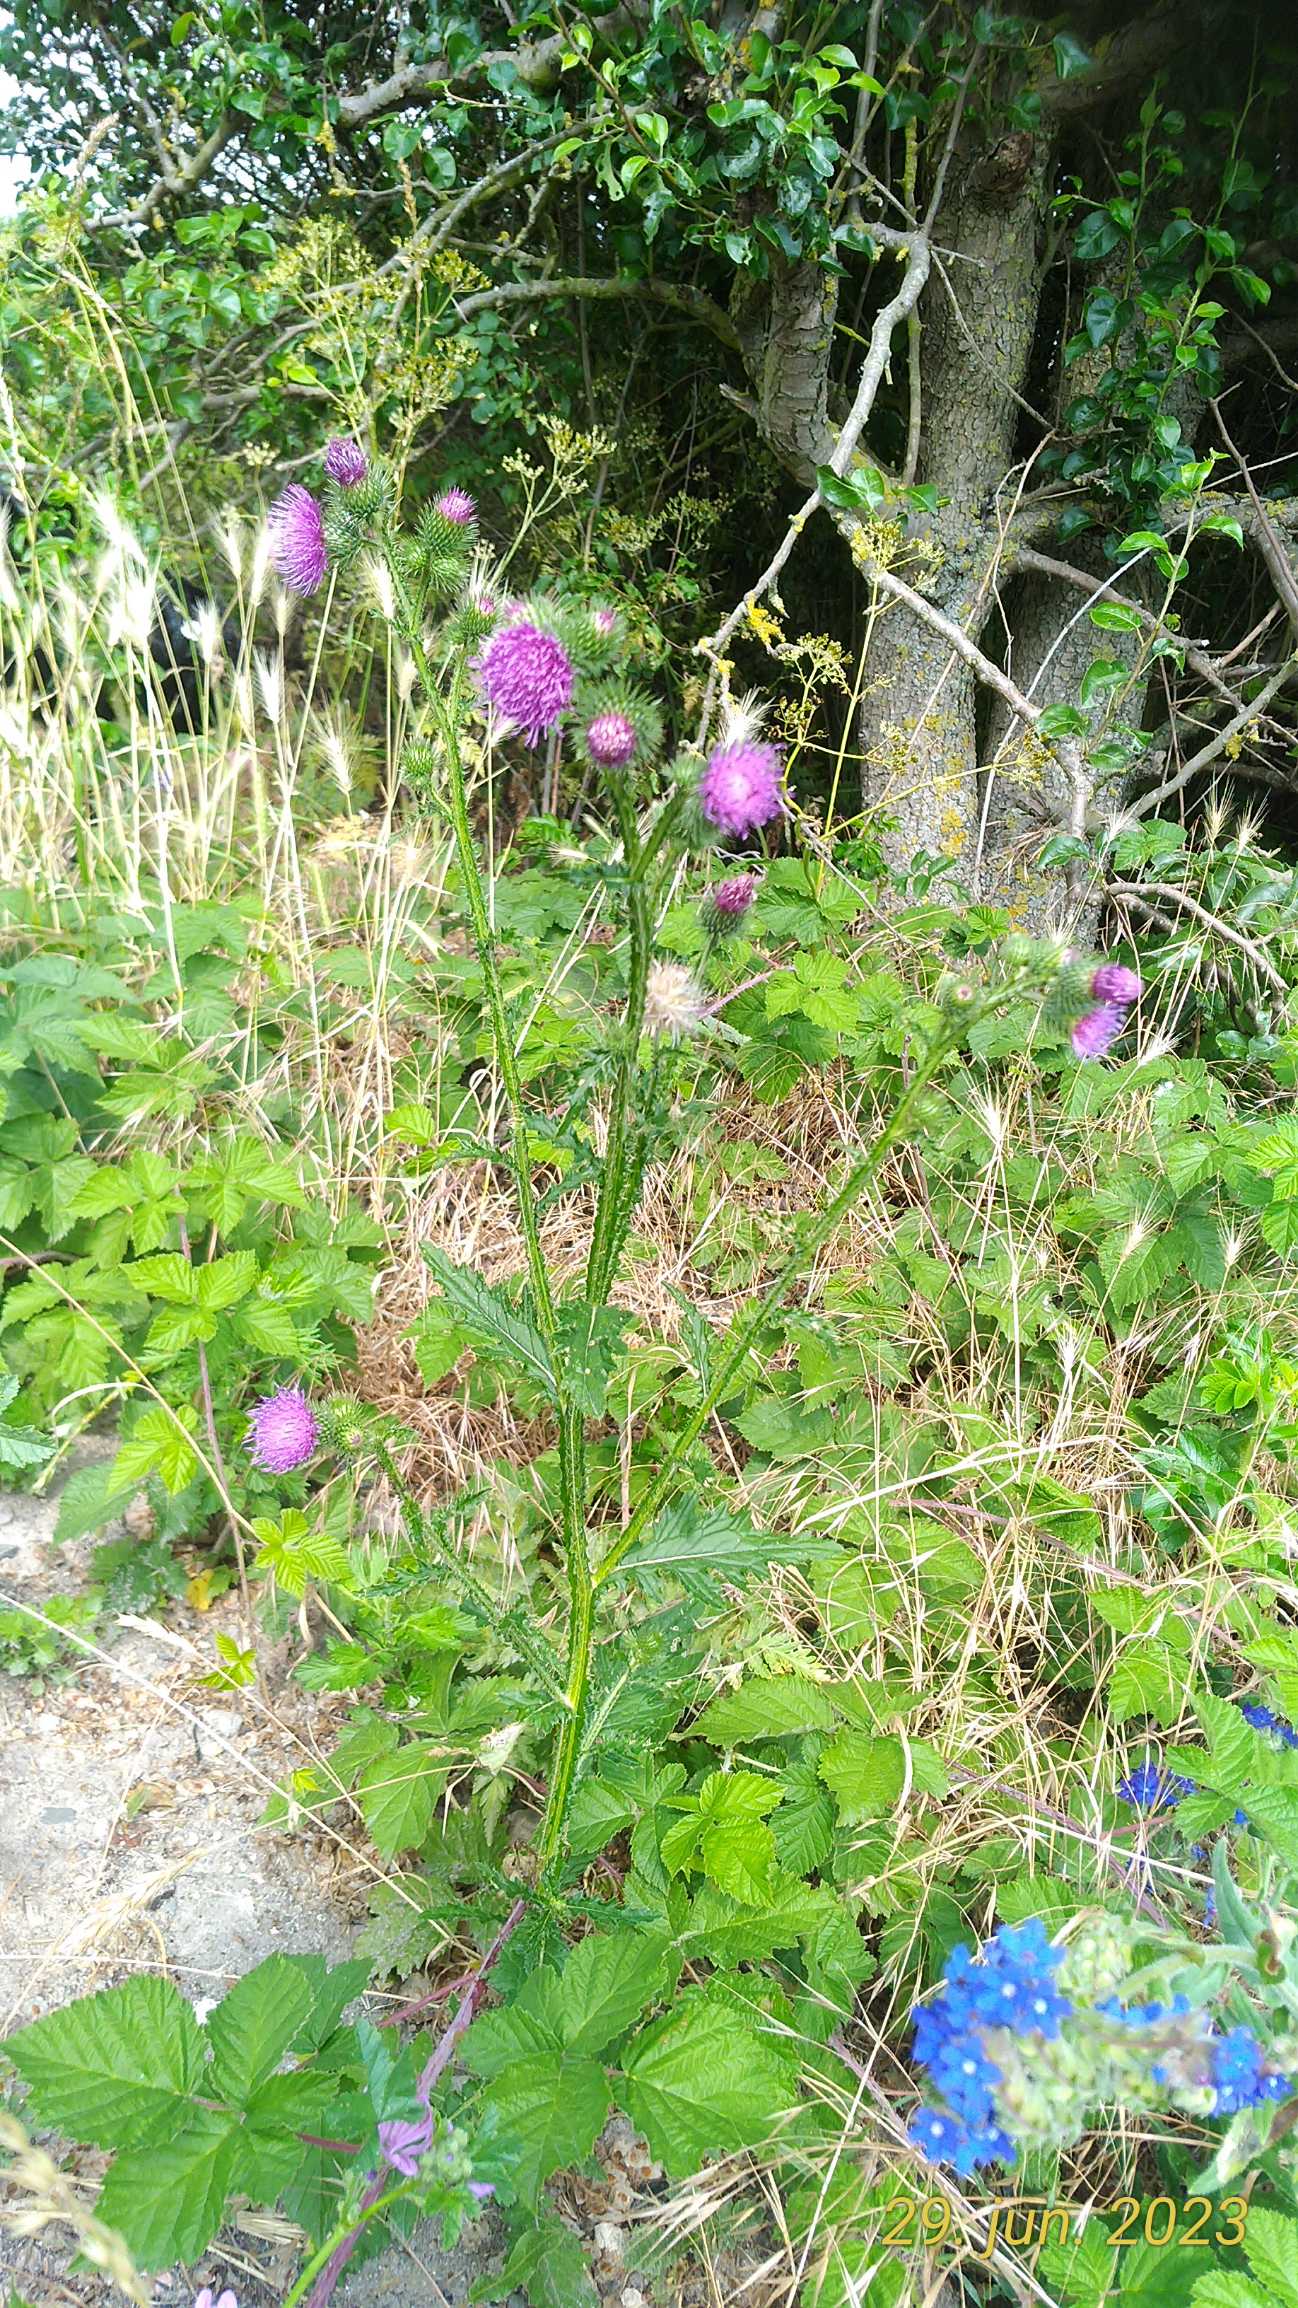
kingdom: Plantae
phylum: Tracheophyta
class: Magnoliopsida
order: Malvales
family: Malvaceae
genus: Malva
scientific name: Malva sylvestris
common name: Almindelig katost
